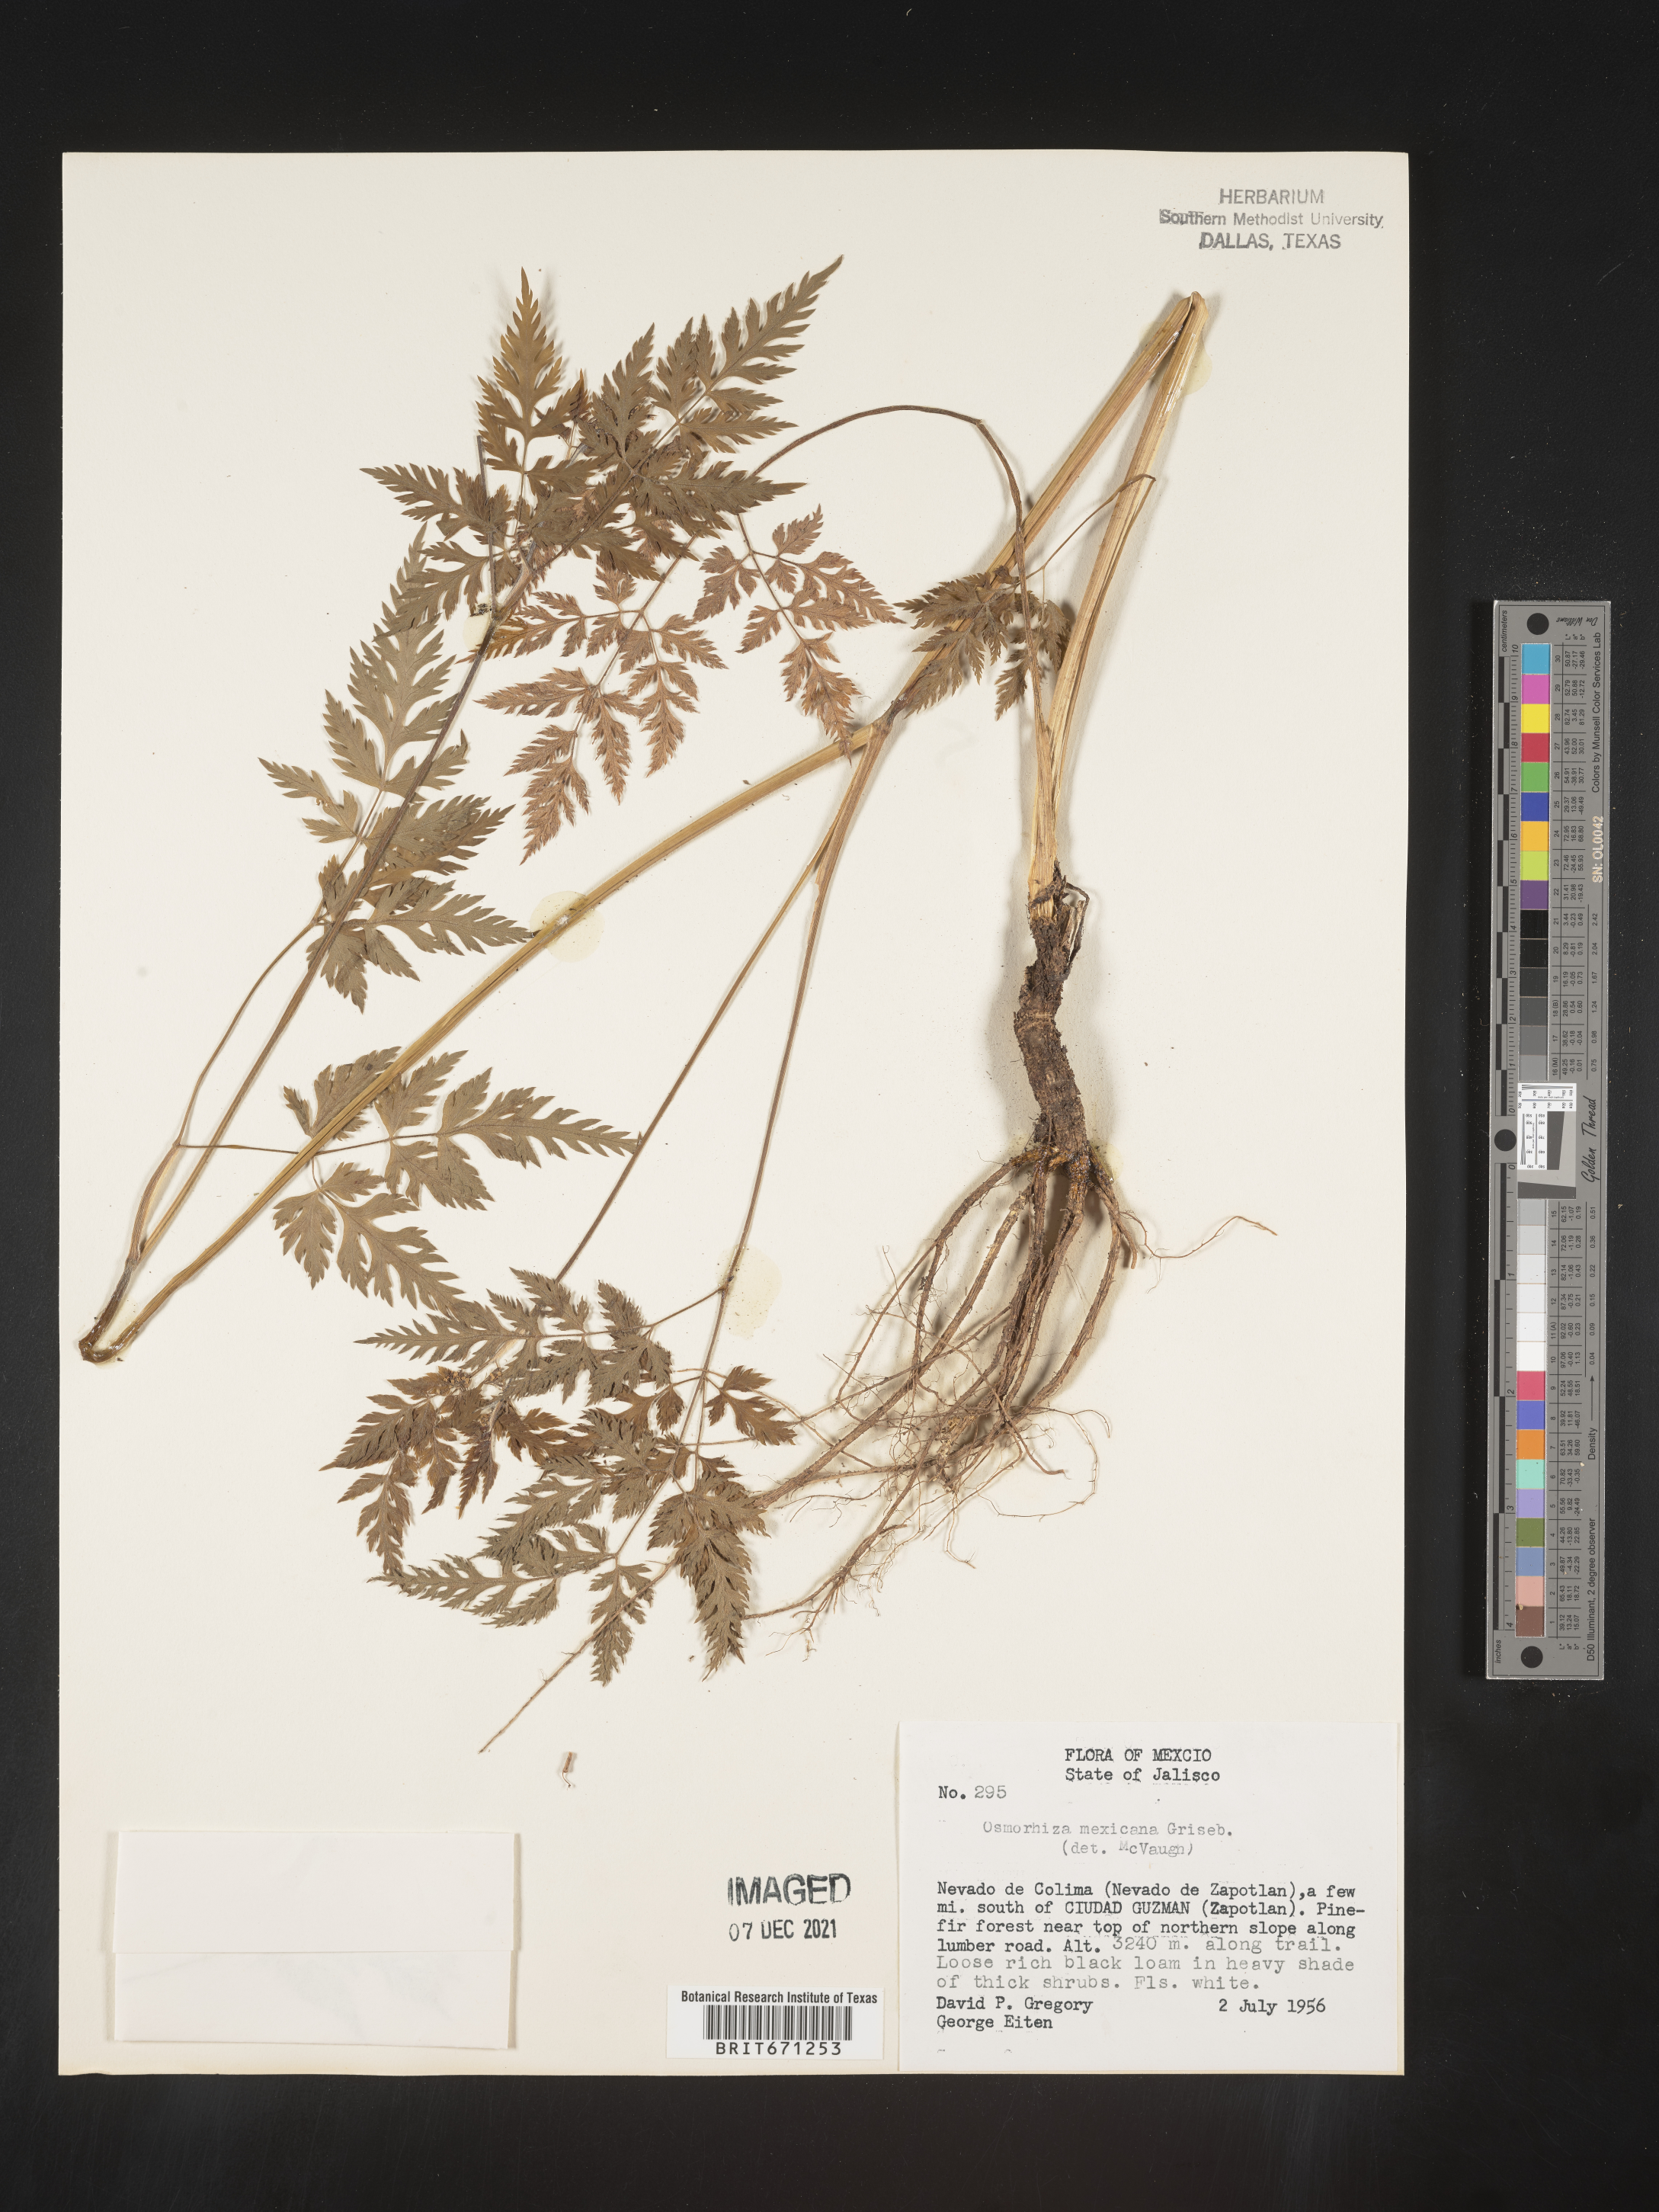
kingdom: Plantae
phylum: Tracheophyta
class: Magnoliopsida
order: Apiales
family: Apiaceae
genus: Osmorhiza
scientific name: Osmorhiza
